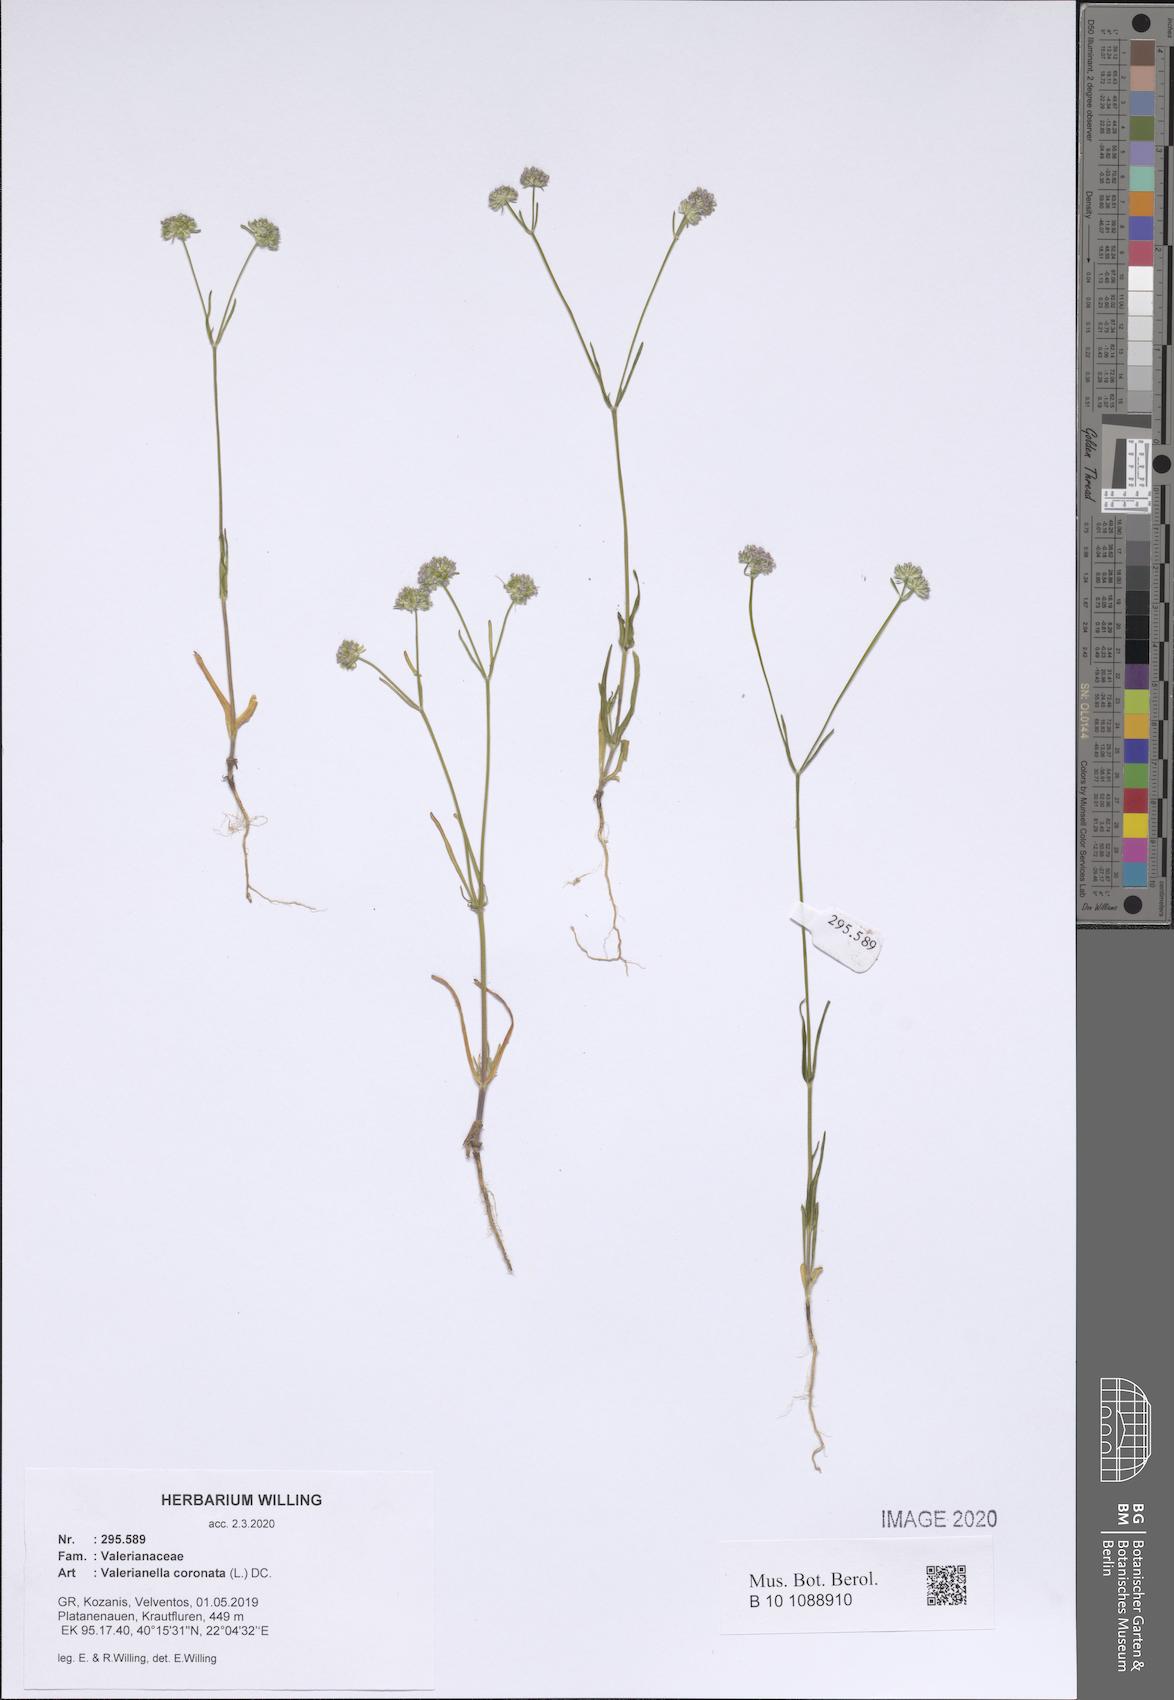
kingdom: Plantae
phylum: Tracheophyta
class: Magnoliopsida
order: Dipsacales
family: Caprifoliaceae
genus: Valerianella
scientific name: Valerianella coronata
